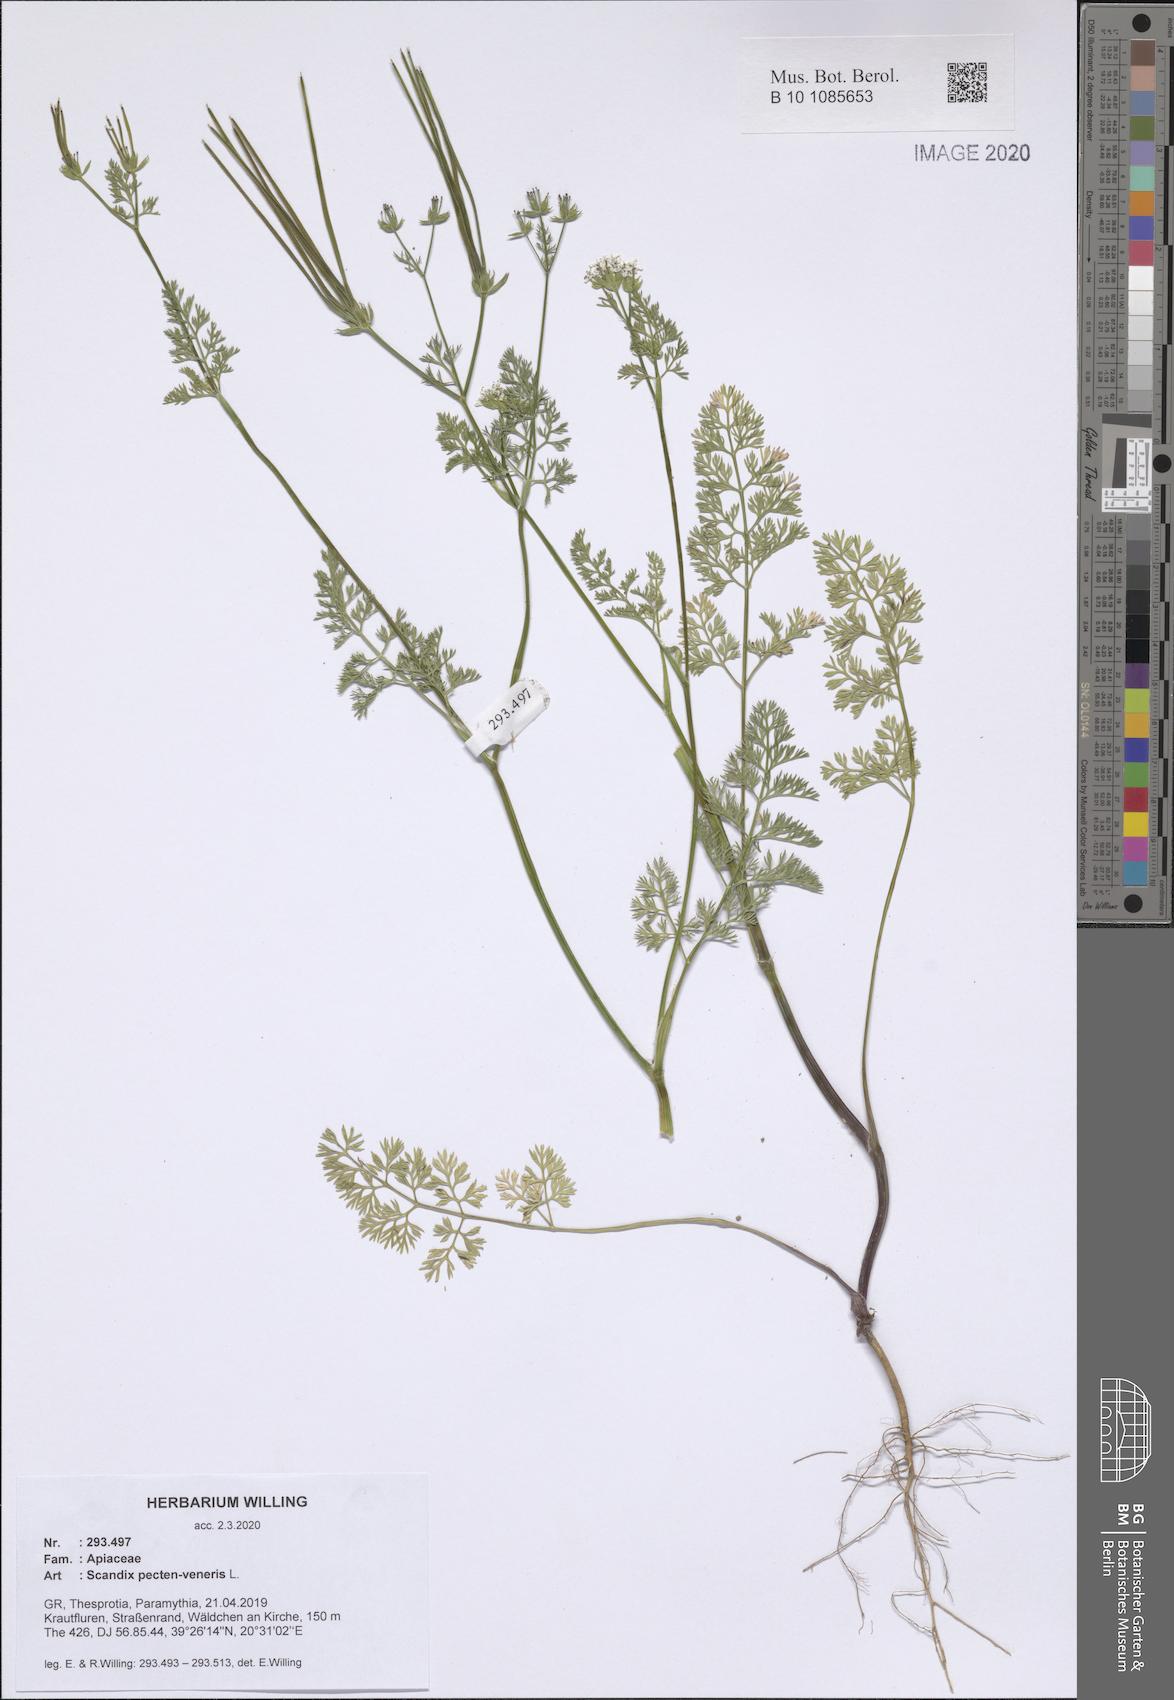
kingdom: Plantae
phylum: Tracheophyta
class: Magnoliopsida
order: Apiales
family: Apiaceae
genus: Scandix
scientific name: Scandix pecten-veneris
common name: Shepherd's-needle
